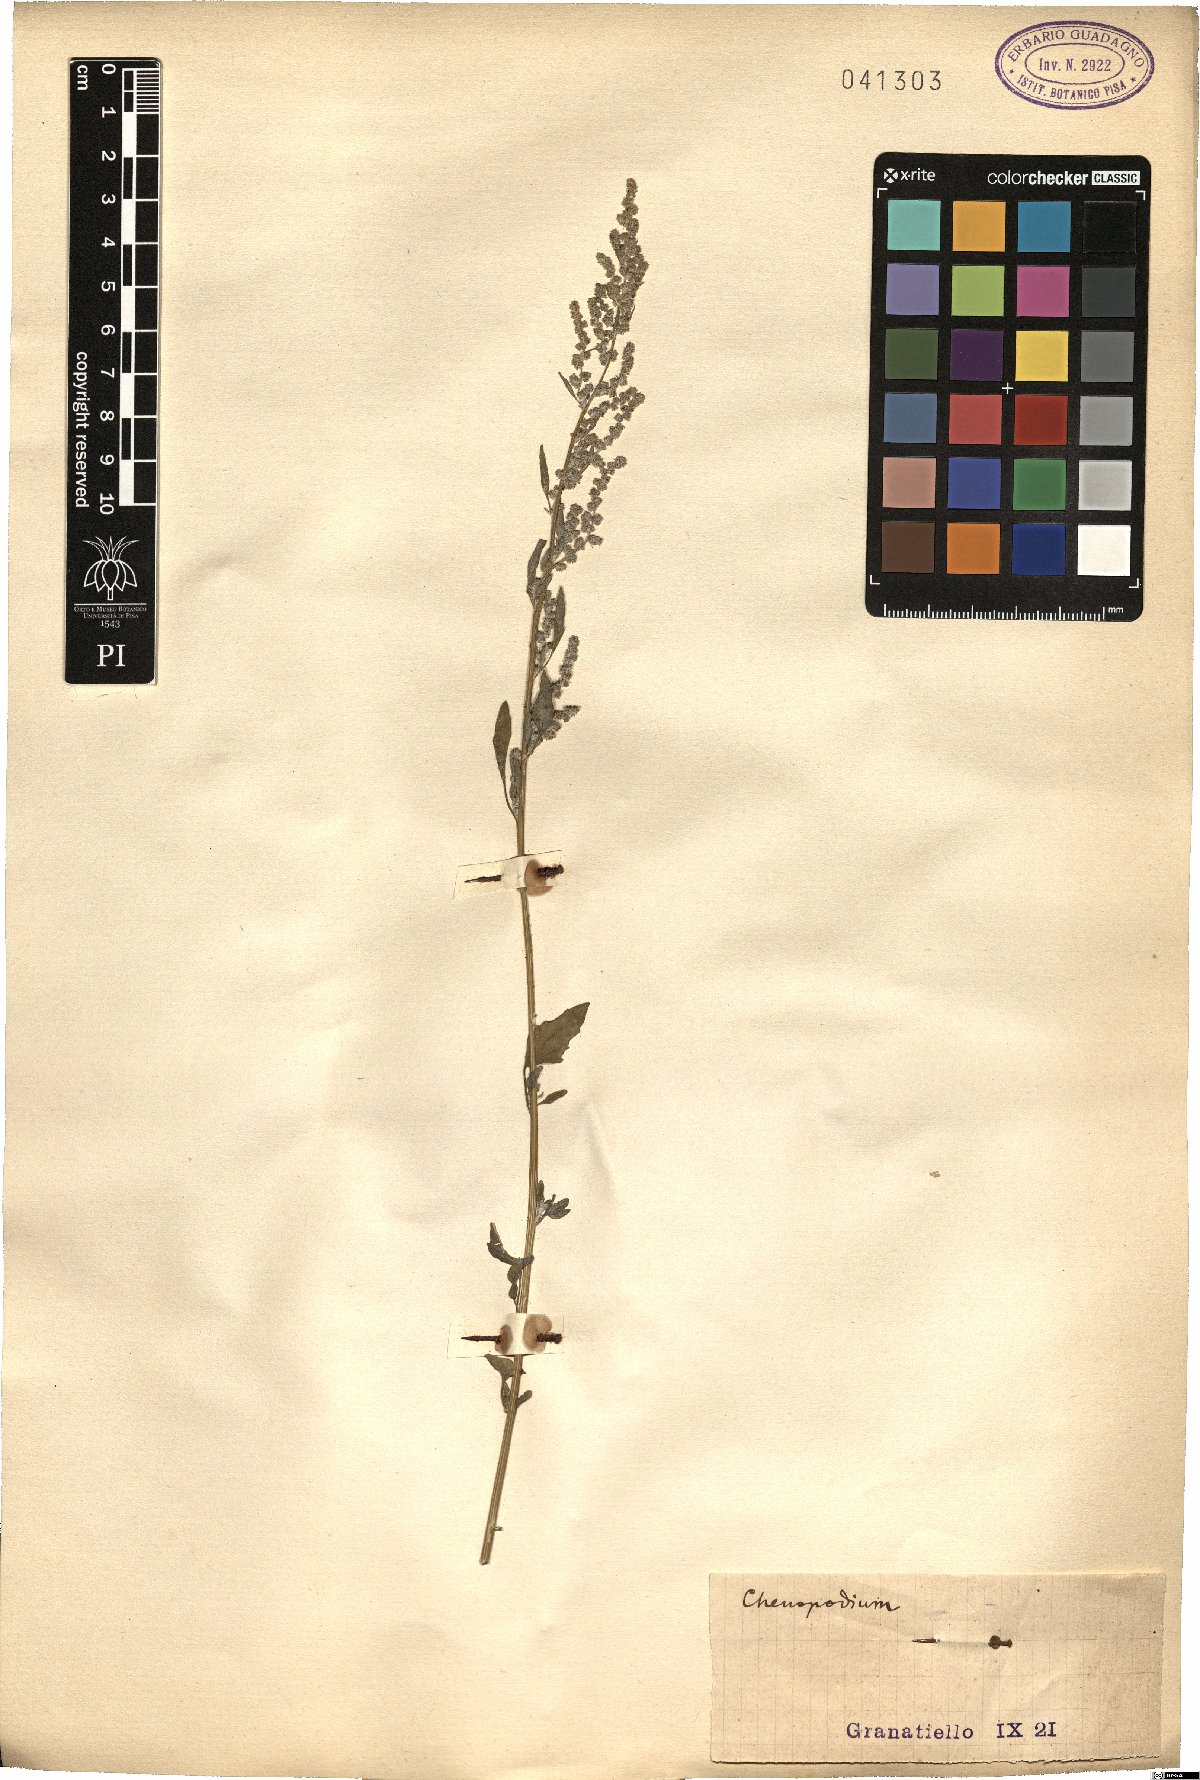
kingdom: Plantae
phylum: Tracheophyta
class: Magnoliopsida
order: Caryophyllales
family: Amaranthaceae
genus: Chenopodium
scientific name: Chenopodium
